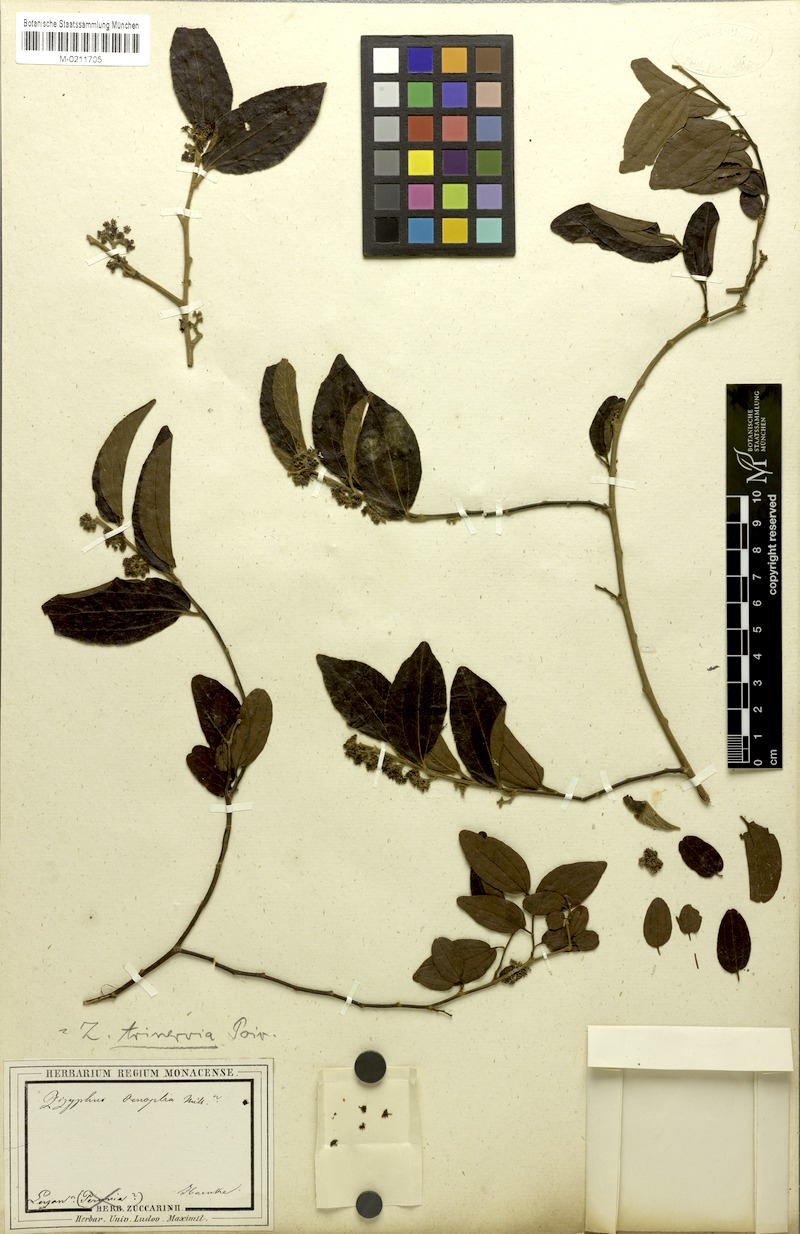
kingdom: Plantae
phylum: Tracheophyta
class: Magnoliopsida
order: Rosales
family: Rhamnaceae
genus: Ziziphus
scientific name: Ziziphus trinervis
